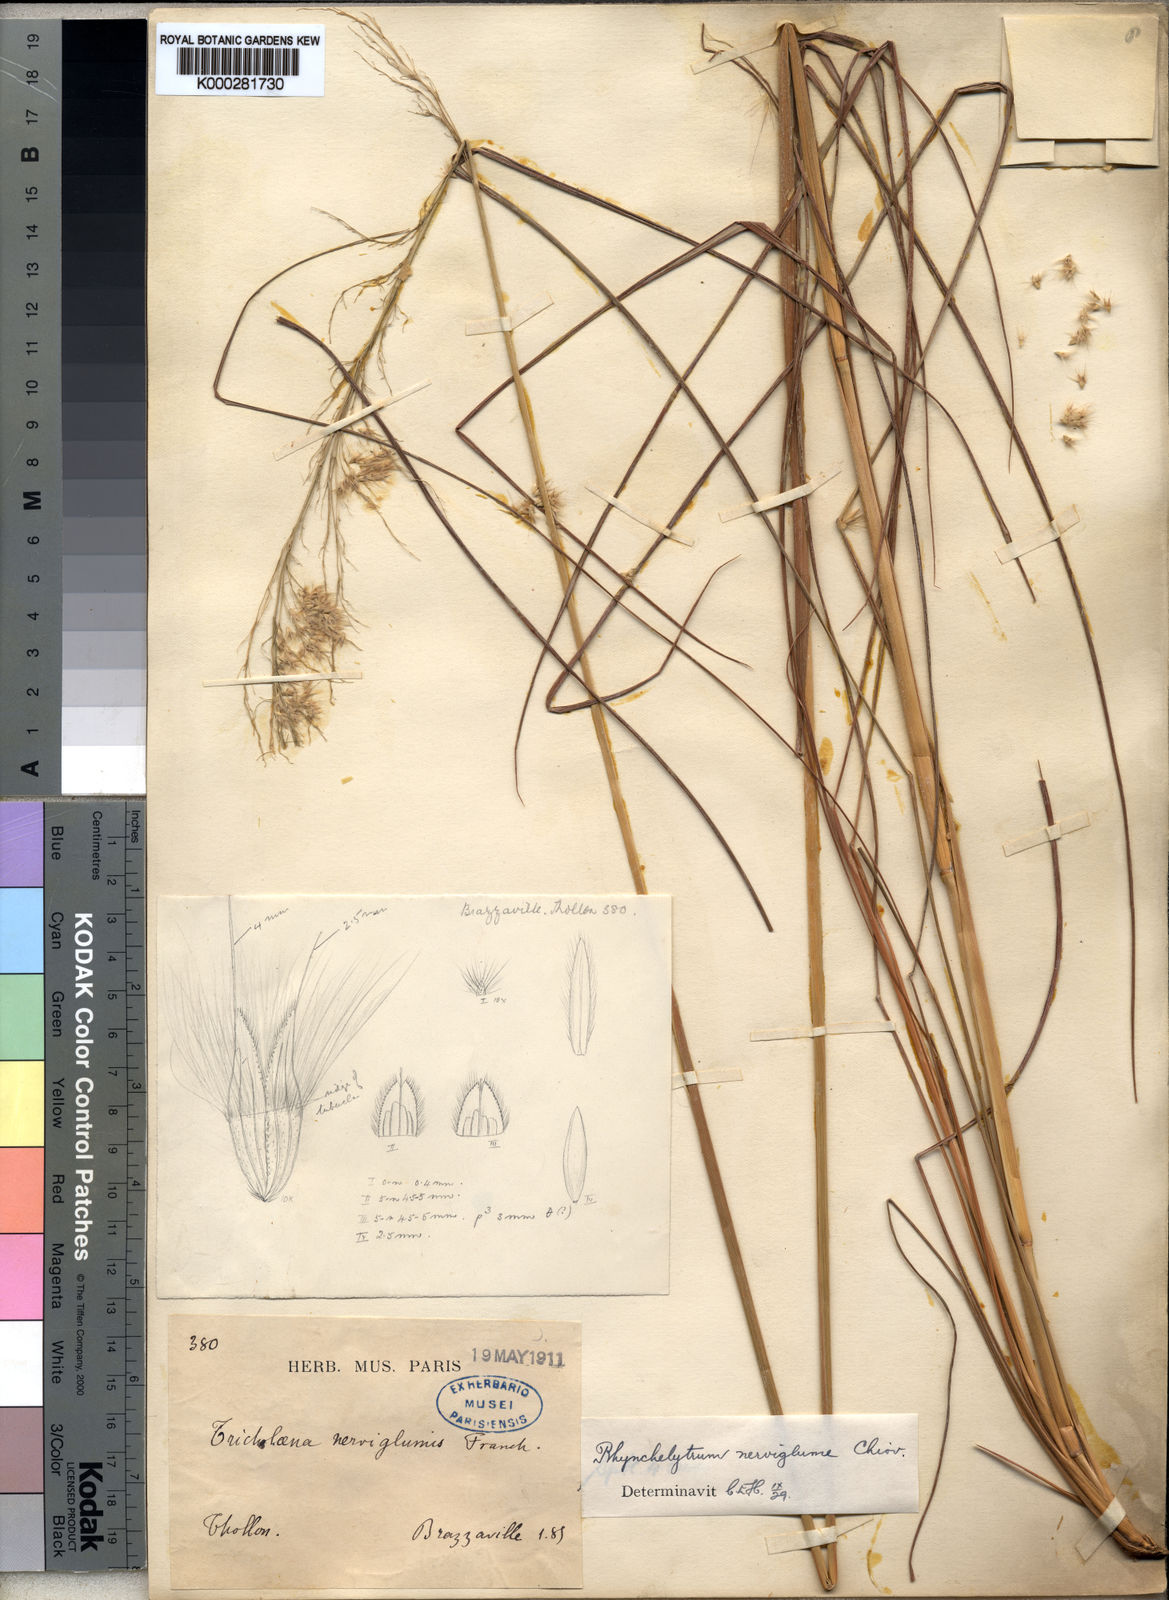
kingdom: Plantae
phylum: Tracheophyta
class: Liliopsida
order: Poales
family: Poaceae
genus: Melinis
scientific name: Melinis nerviglumis
